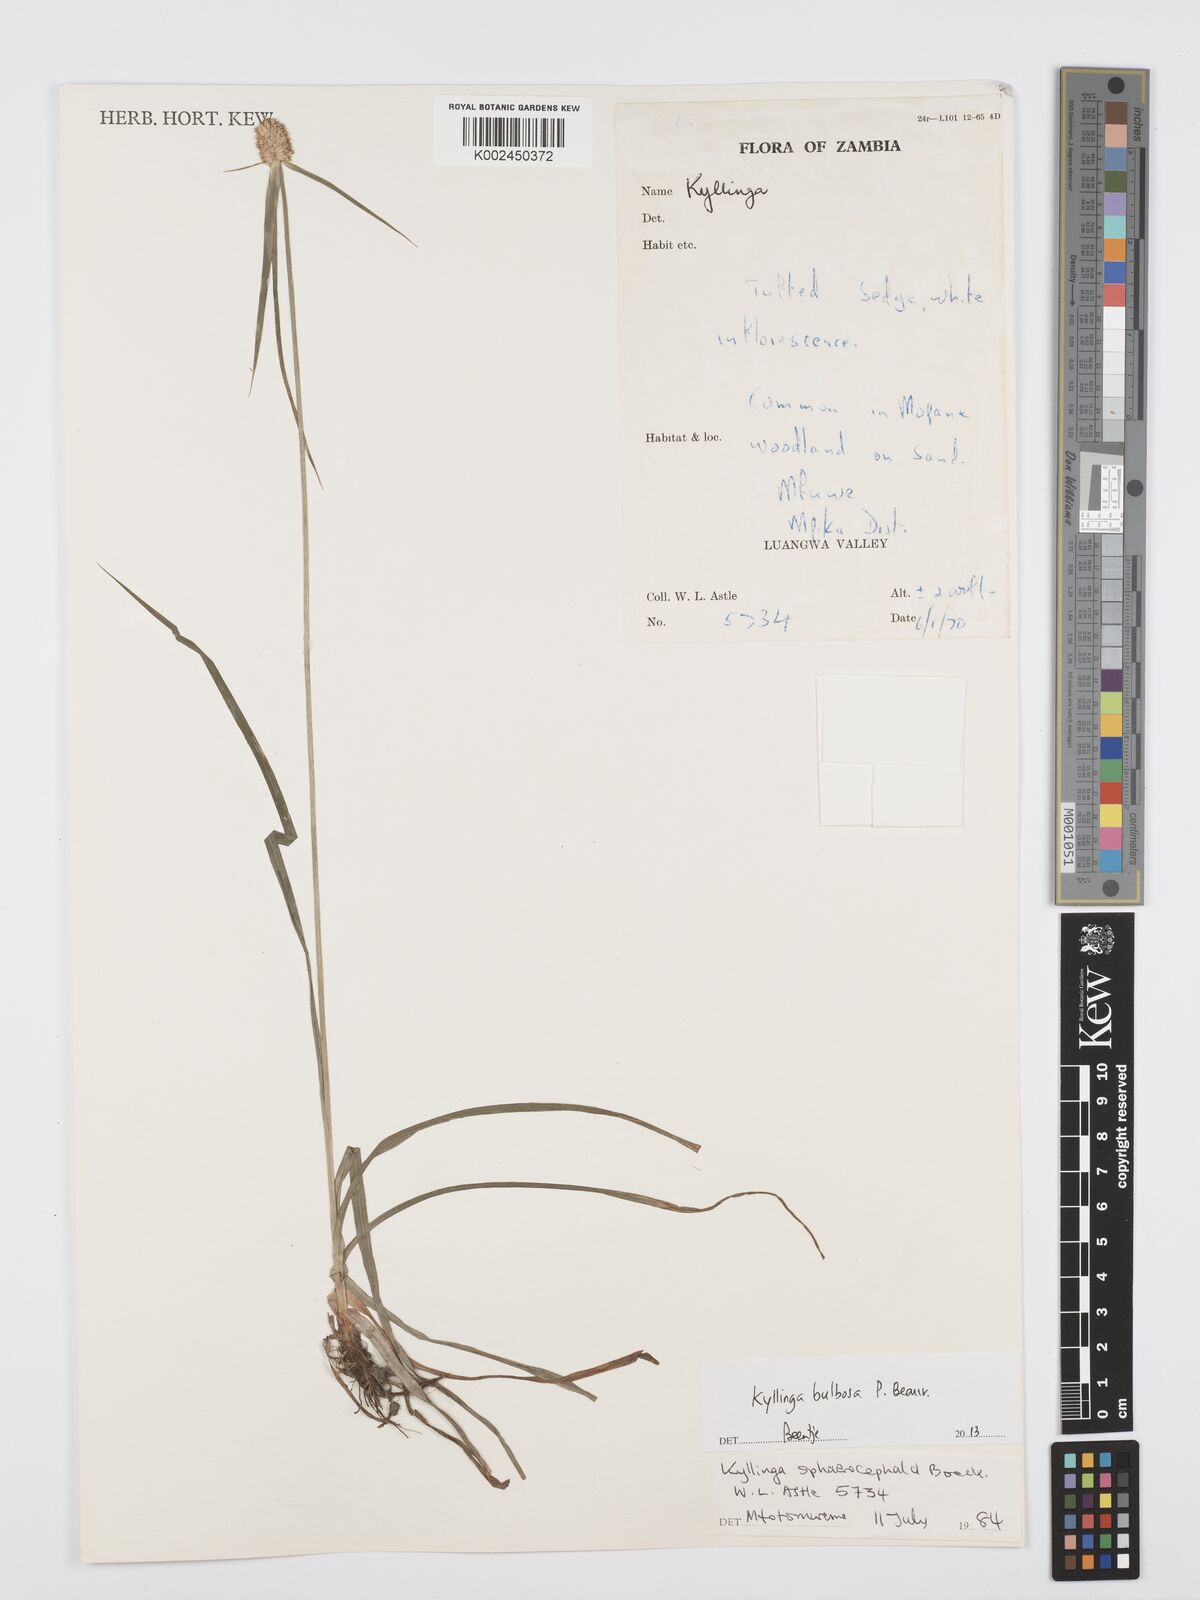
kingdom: Plantae
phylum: Tracheophyta
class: Liliopsida
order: Poales
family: Cyperaceae
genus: Cyperus
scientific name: Cyperus
